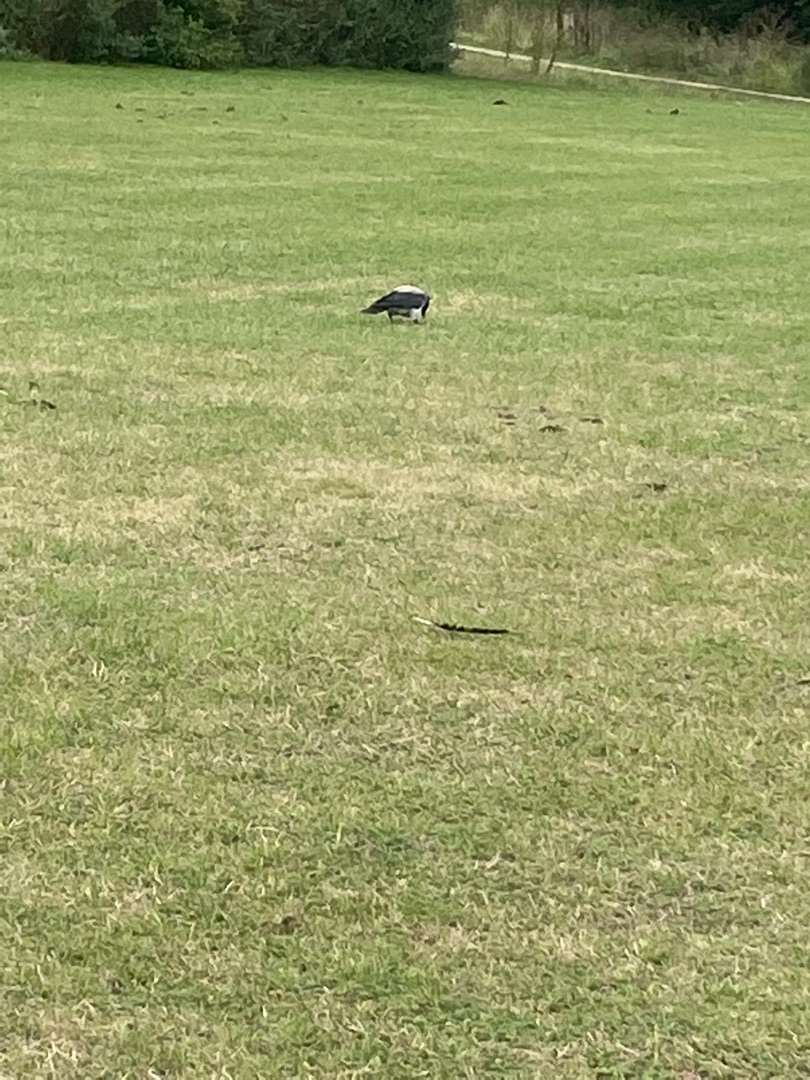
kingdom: Animalia
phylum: Chordata
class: Aves
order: Passeriformes
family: Corvidae
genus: Corvus
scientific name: Corvus cornix
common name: Gråkrage
